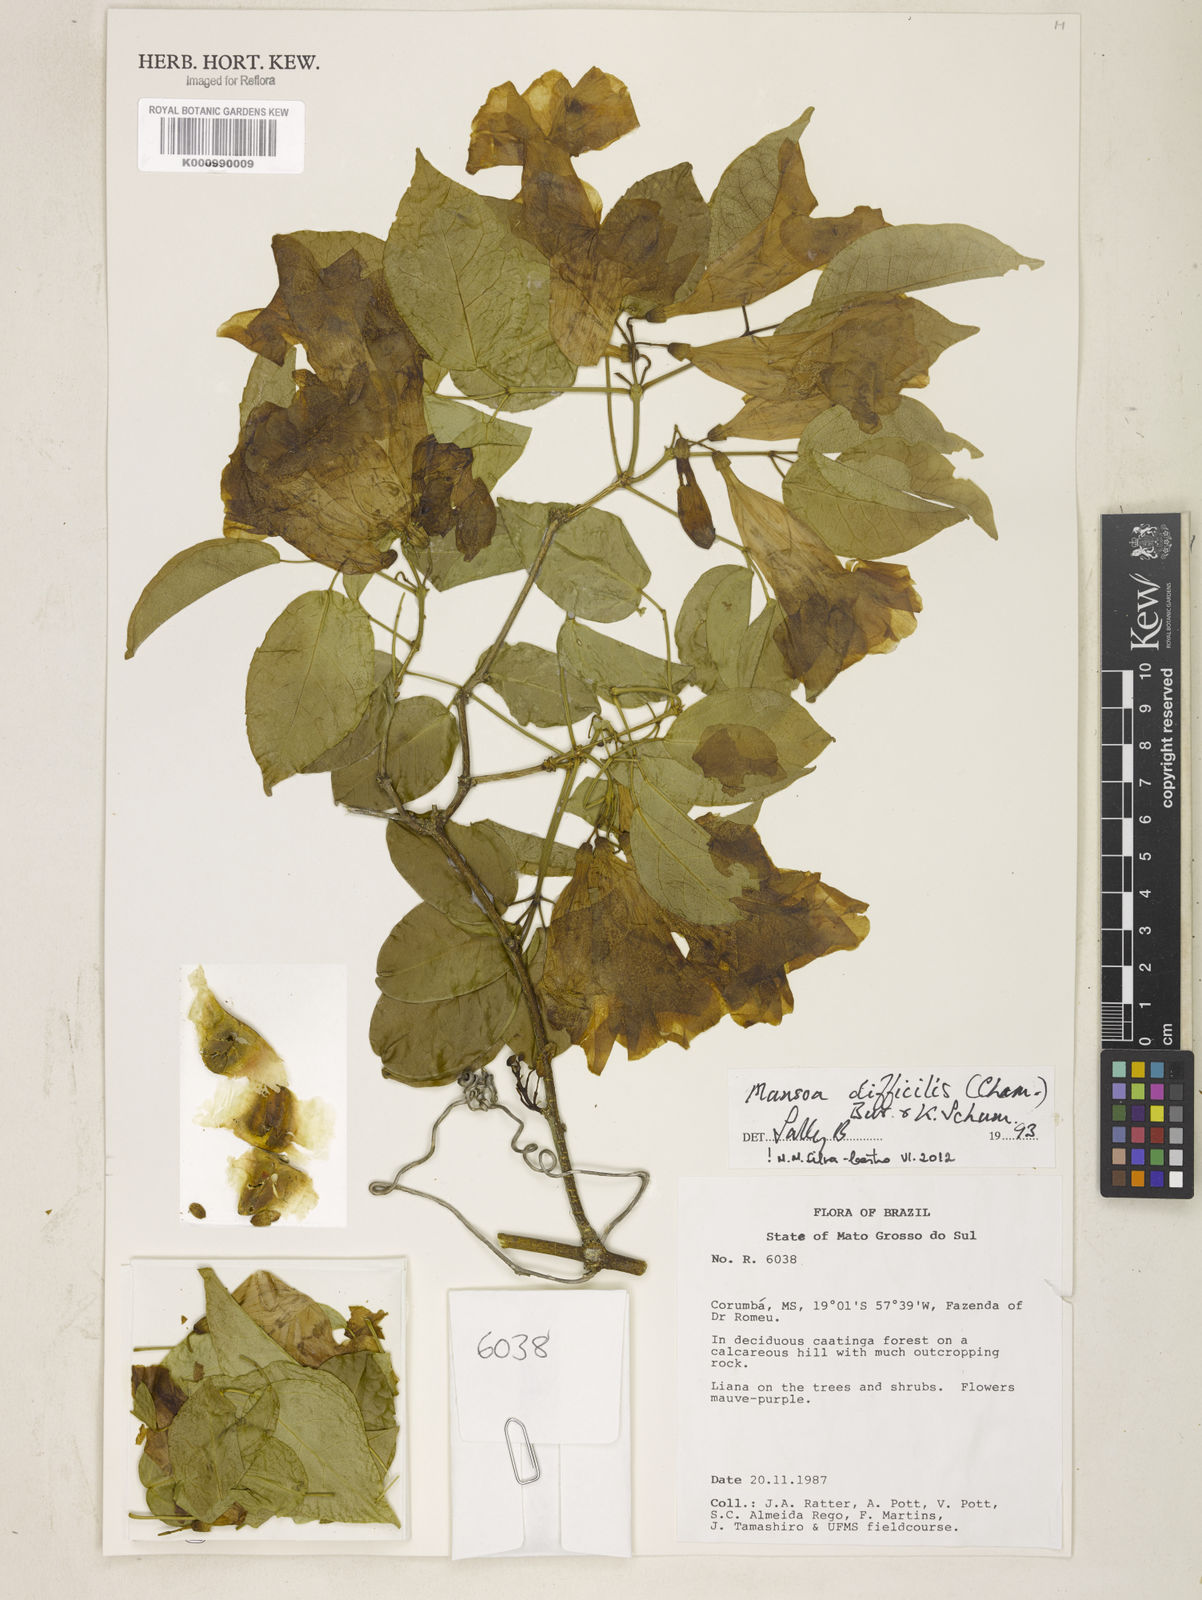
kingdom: Plantae
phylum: Tracheophyta
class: Magnoliopsida
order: Lamiales
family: Bignoniaceae
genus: Mansoa
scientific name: Mansoa difficilis
